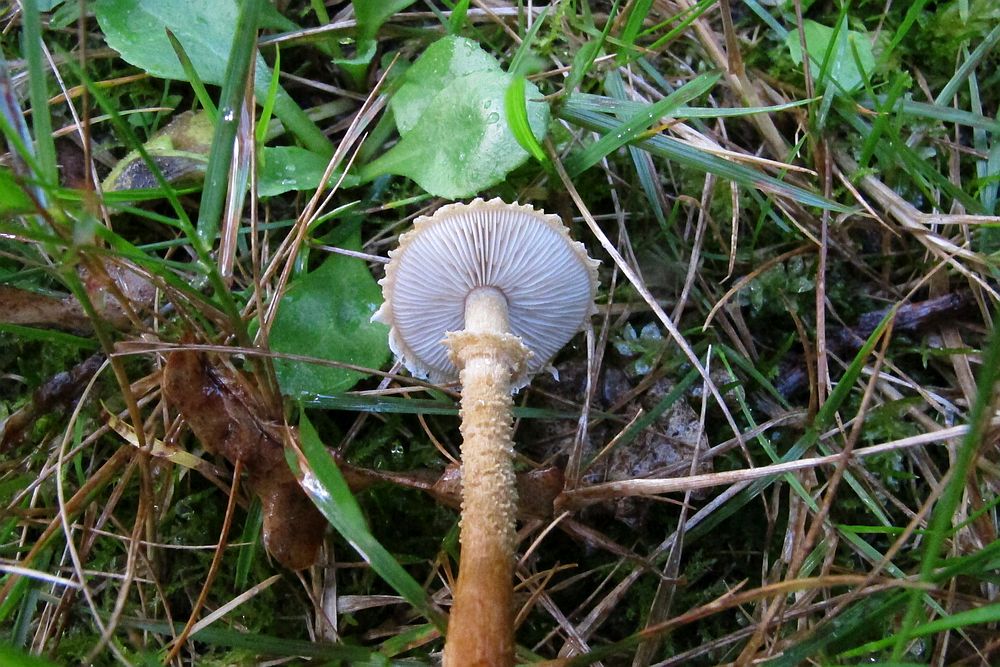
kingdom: Fungi
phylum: Basidiomycota
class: Agaricomycetes
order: Agaricales
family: Tricholomataceae
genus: Cystoderma
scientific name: Cystoderma amianthinum
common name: okkergul grynhat
